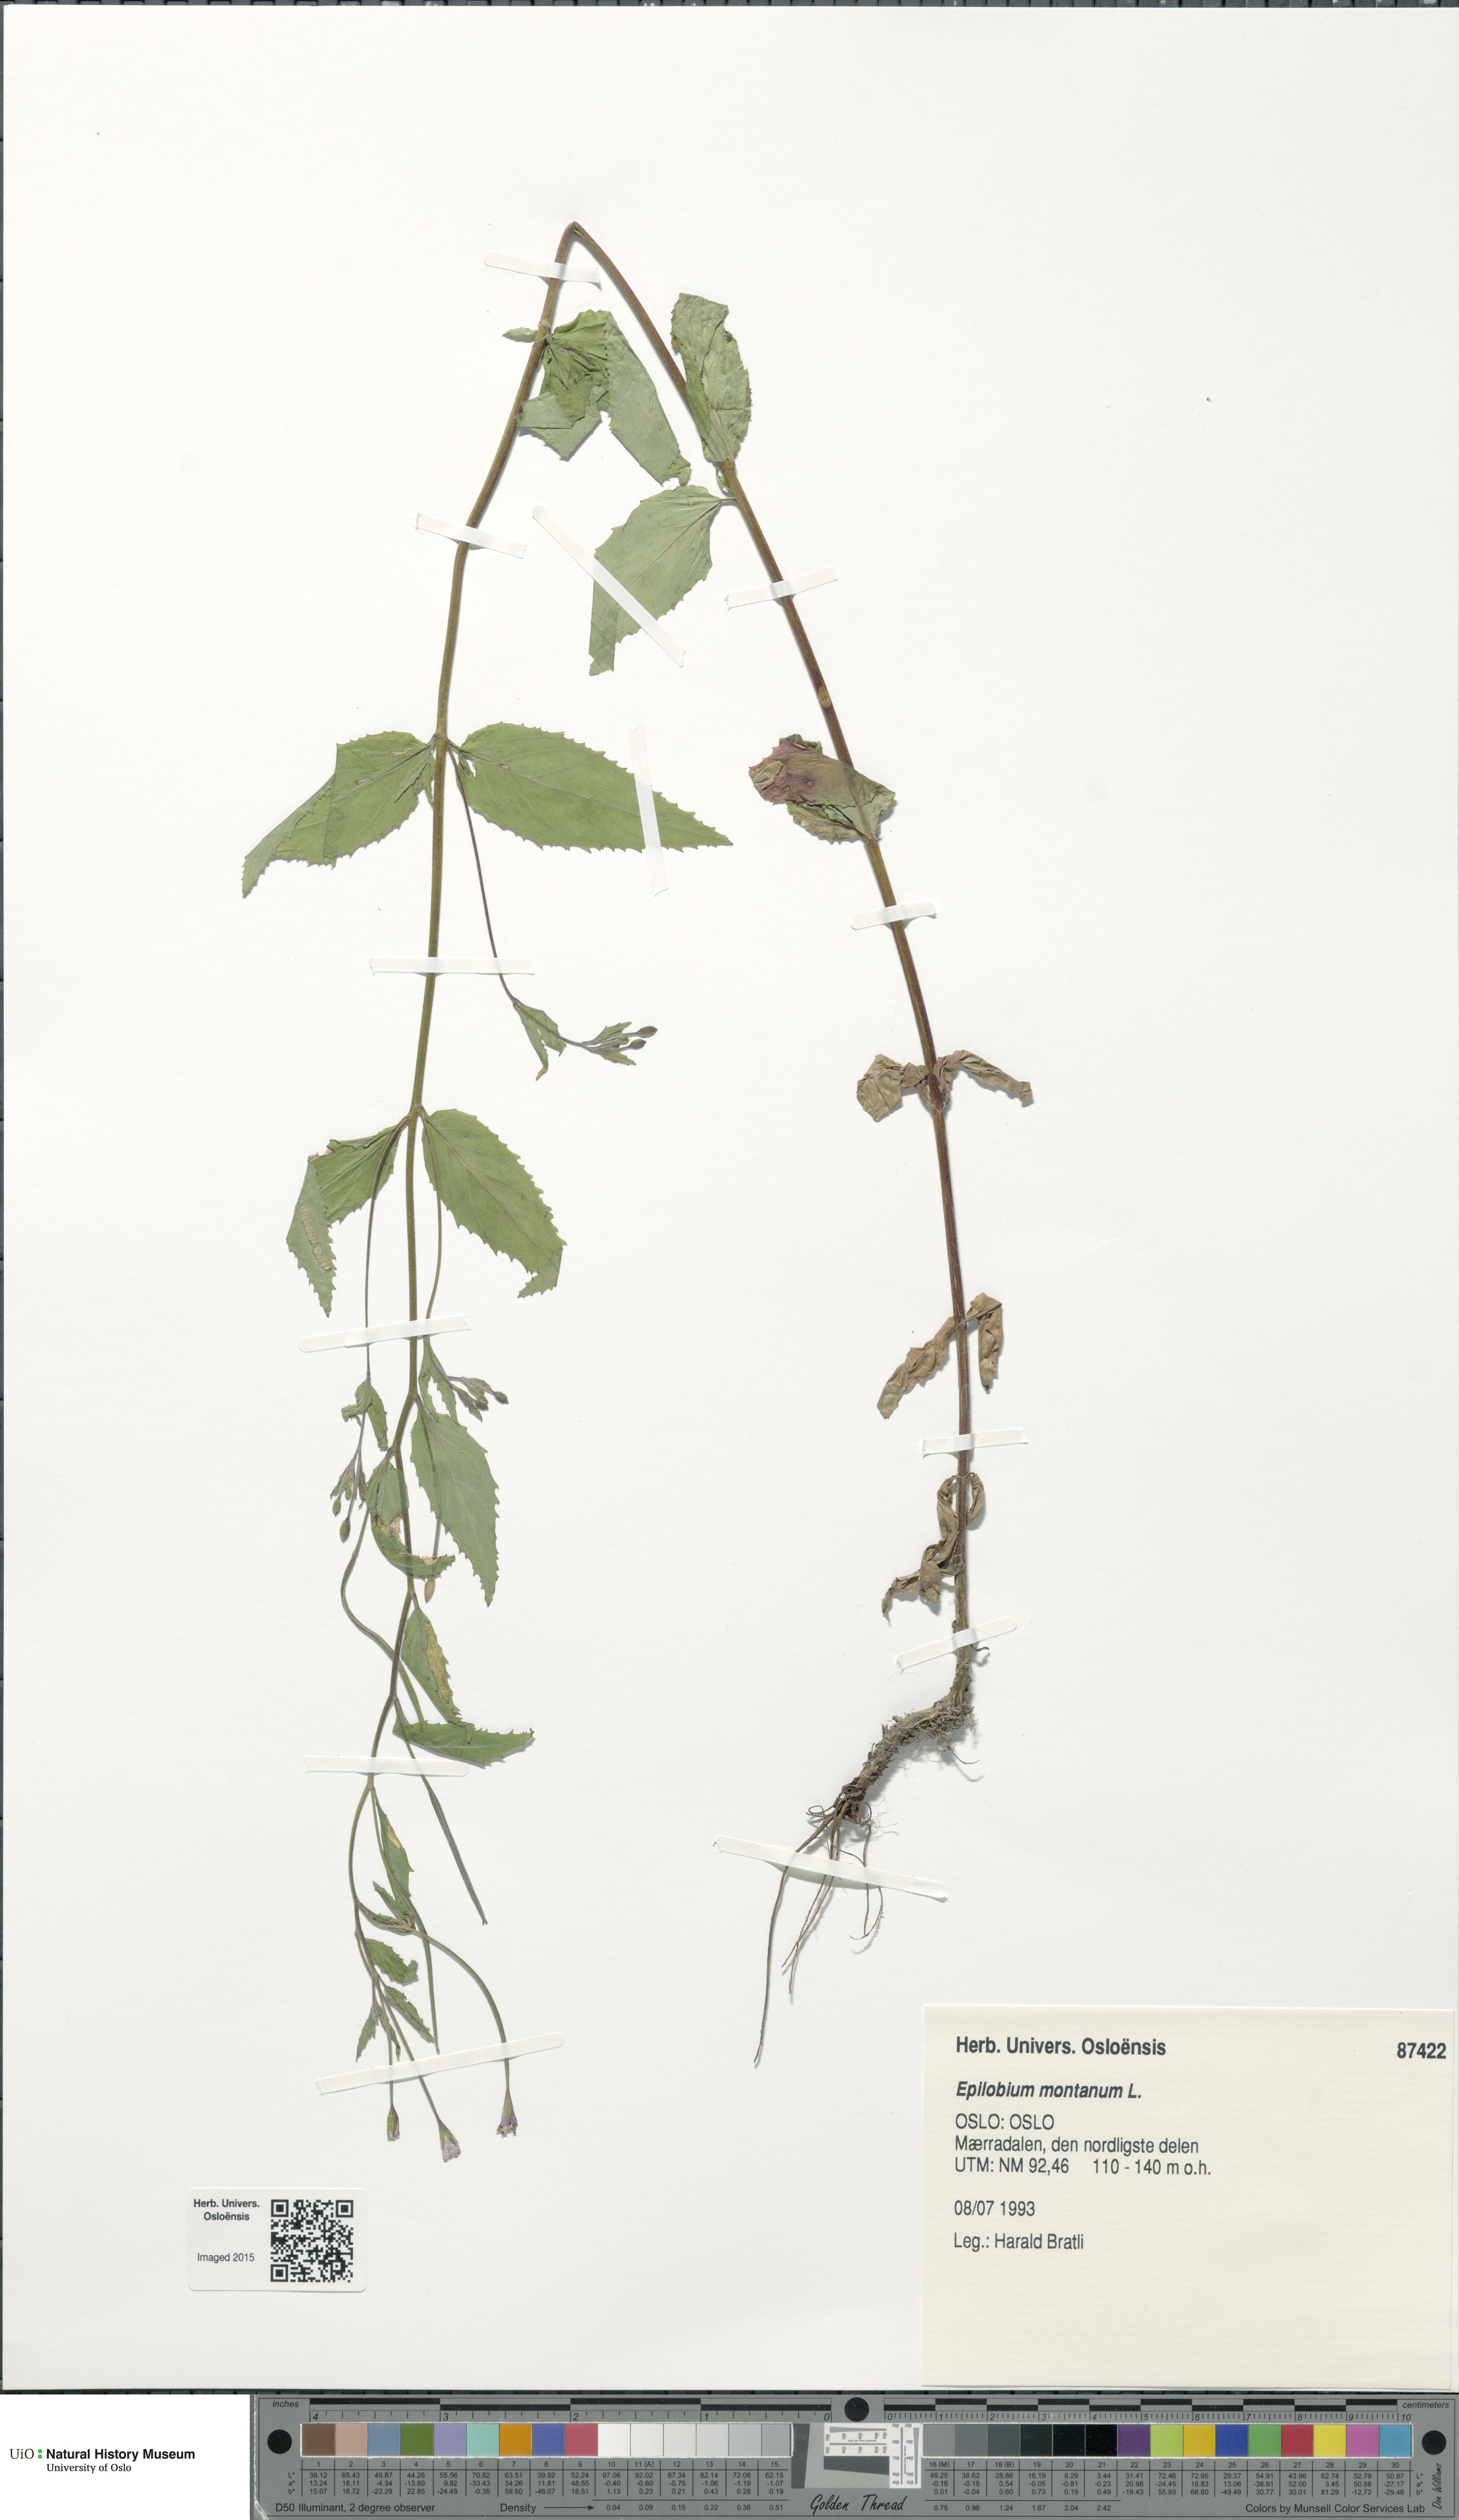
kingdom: Plantae
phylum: Tracheophyta
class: Magnoliopsida
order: Myrtales
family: Onagraceae
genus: Epilobium
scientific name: Epilobium montanum
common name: Broad-leaved willowherb
